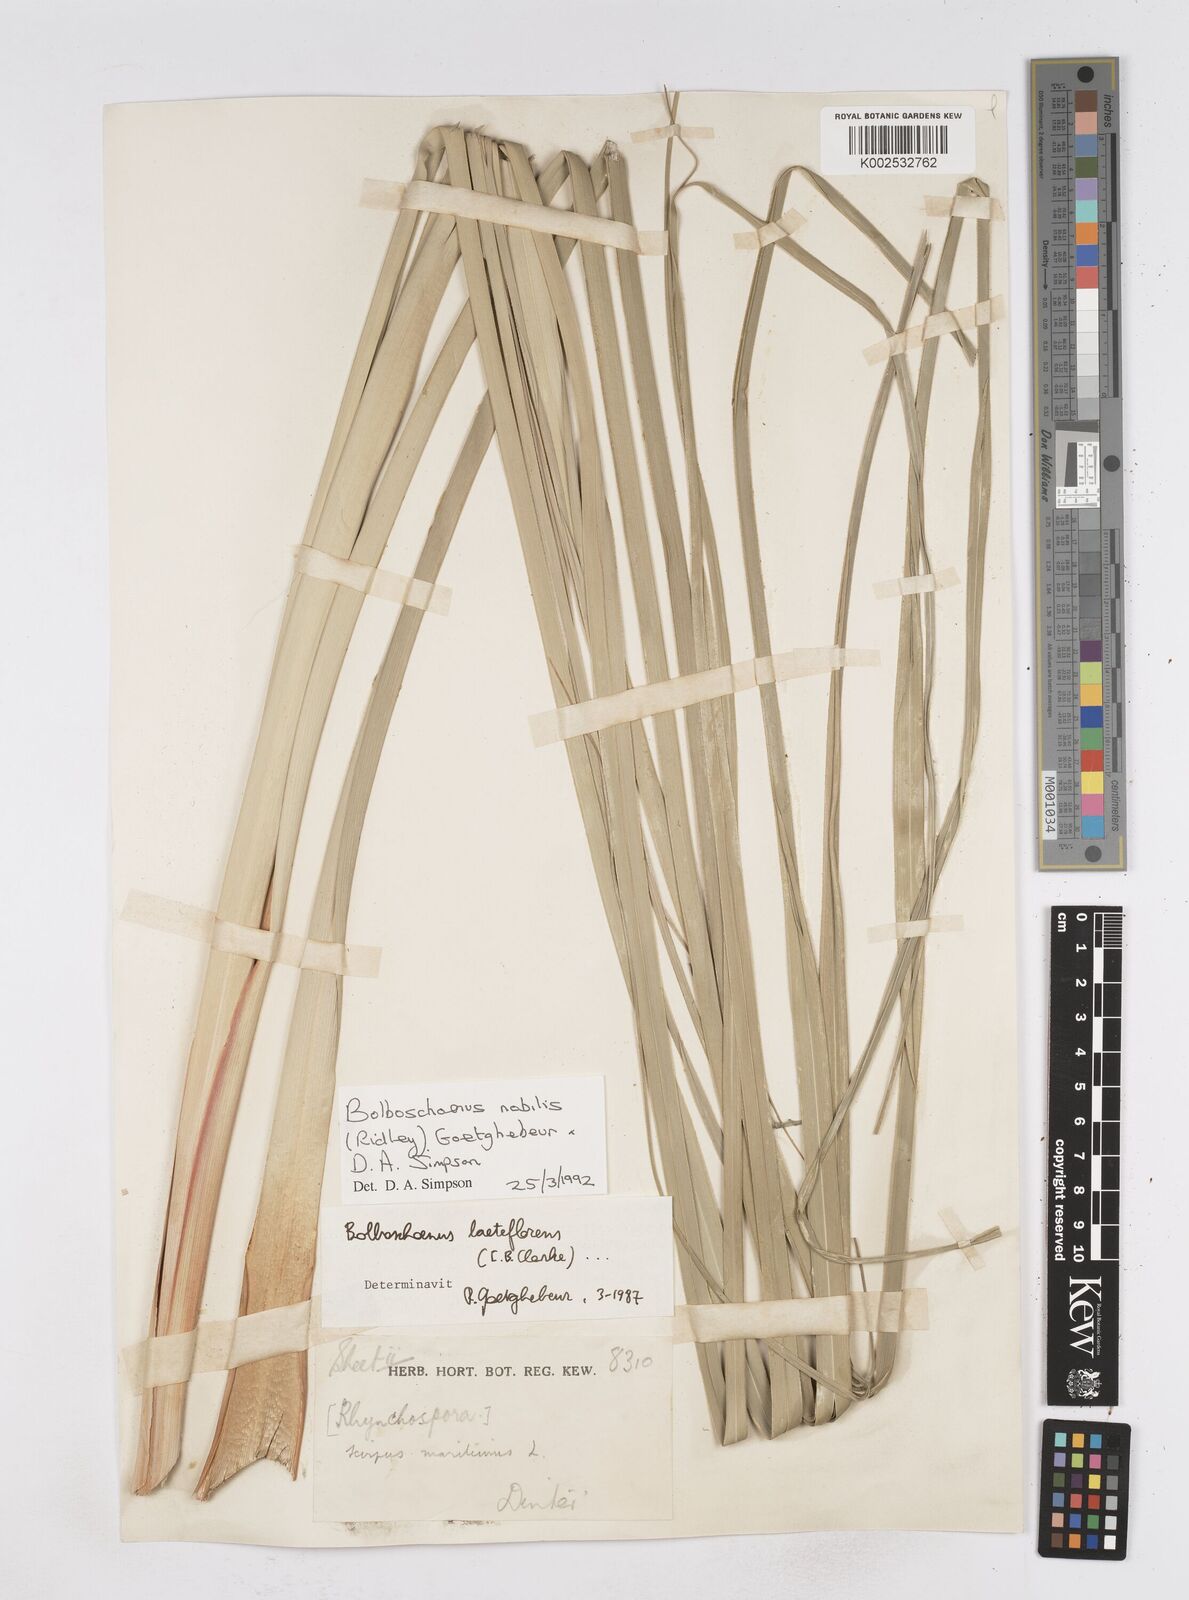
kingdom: Plantae
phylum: Tracheophyta
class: Liliopsida
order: Poales
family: Cyperaceae
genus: Bolboschoenus
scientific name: Bolboschoenus nobilis
